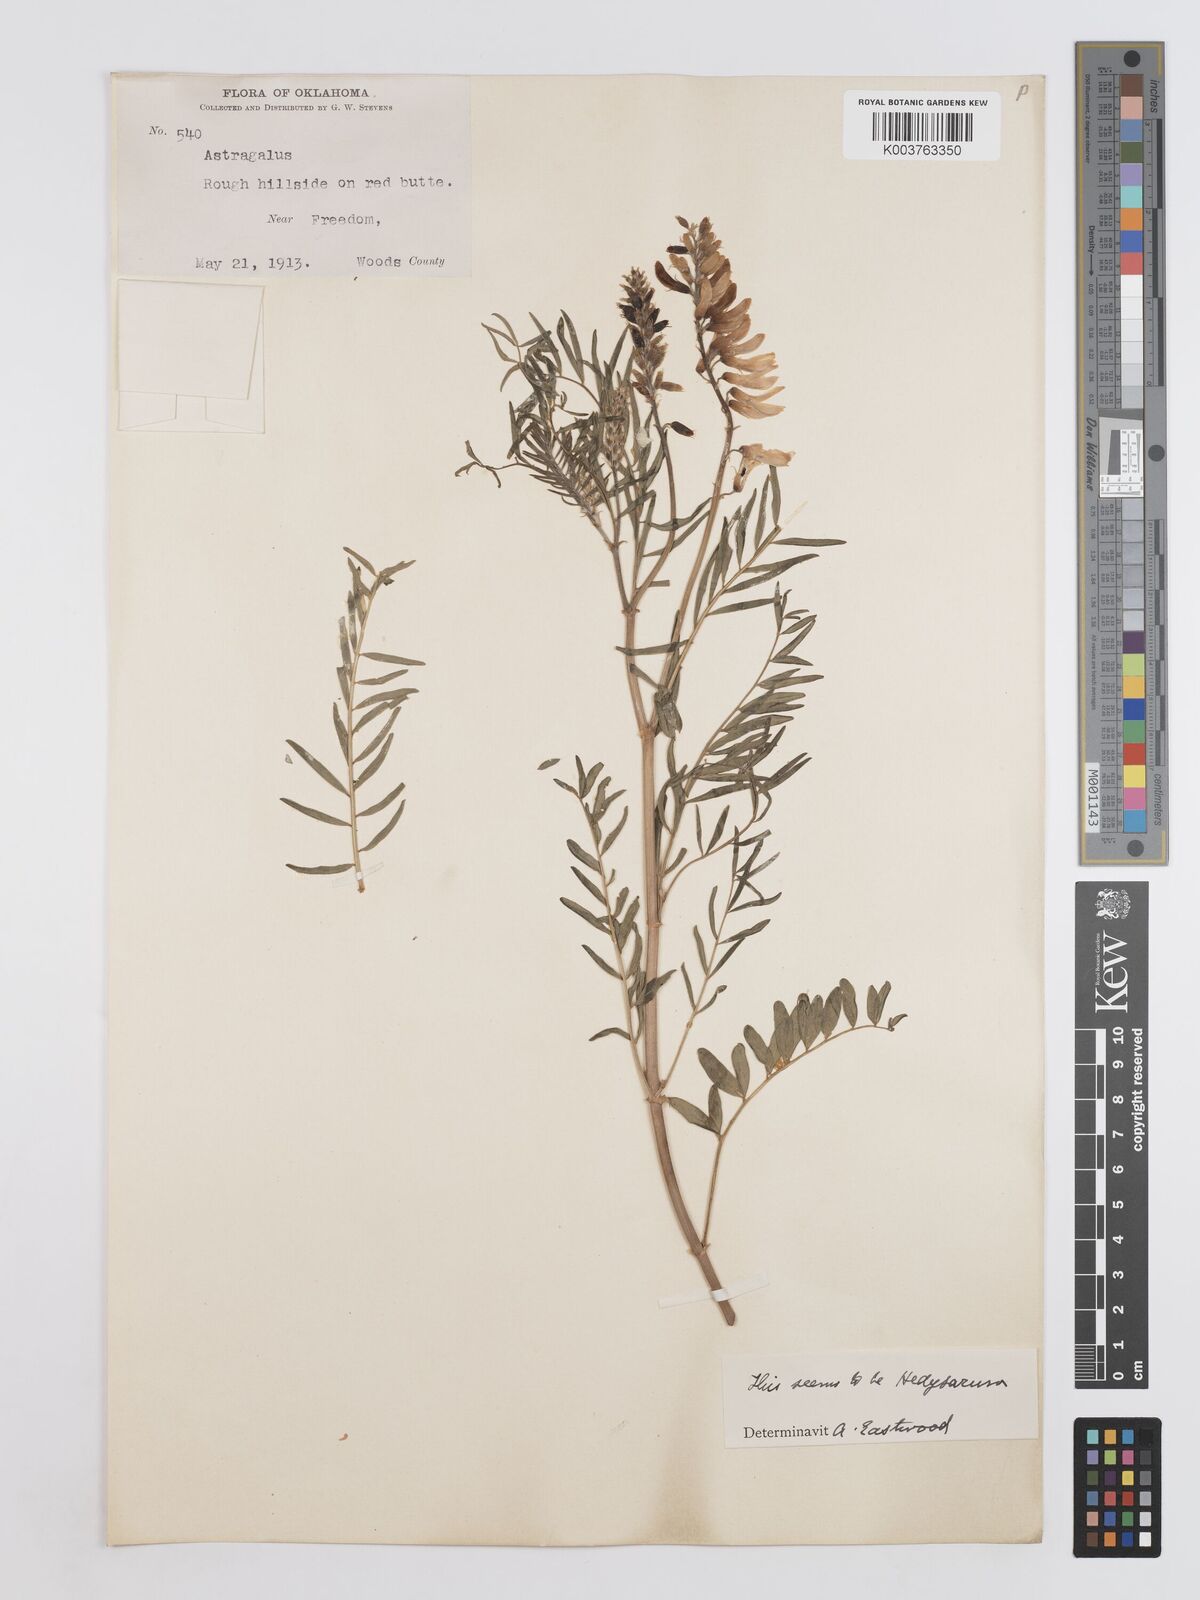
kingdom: Plantae
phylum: Tracheophyta
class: Magnoliopsida
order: Fabales
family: Fabaceae
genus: Hedysarum
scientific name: Hedysarum
